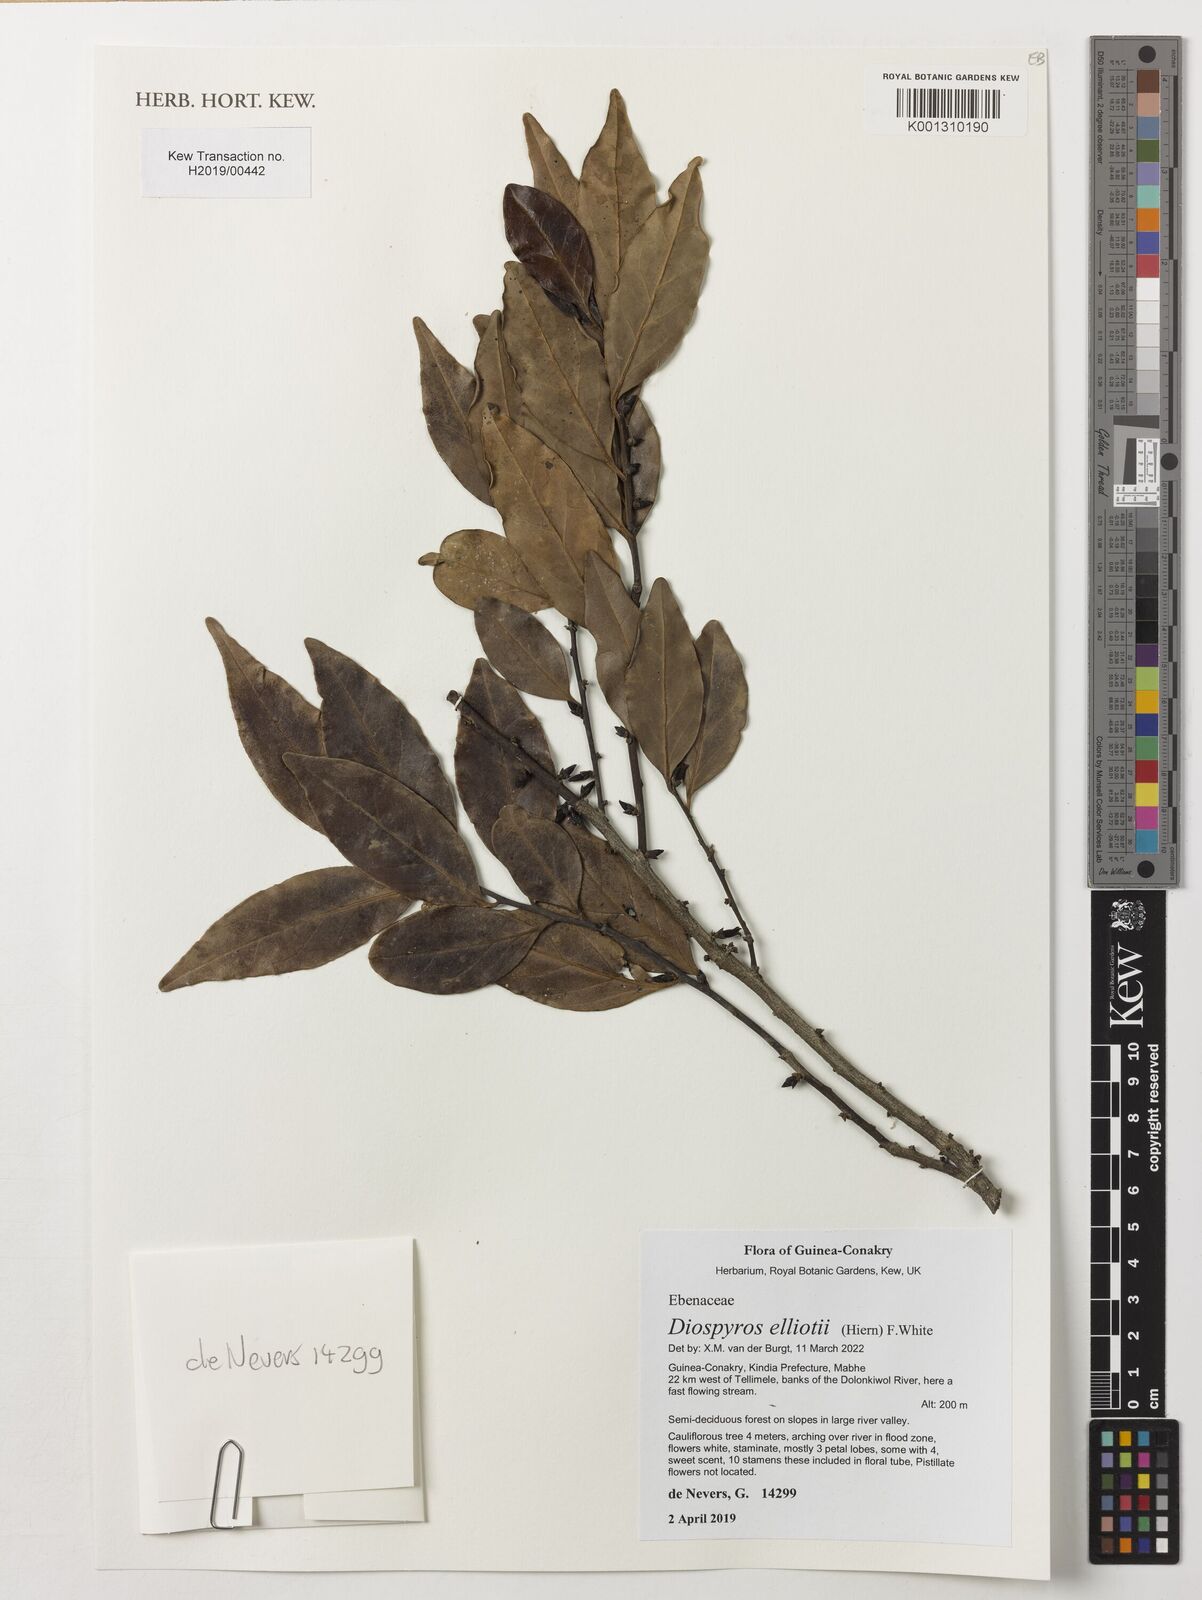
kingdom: Plantae
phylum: Tracheophyta
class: Magnoliopsida
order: Ericales
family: Ebenaceae
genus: Diospyros
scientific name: Diospyros elliotii
